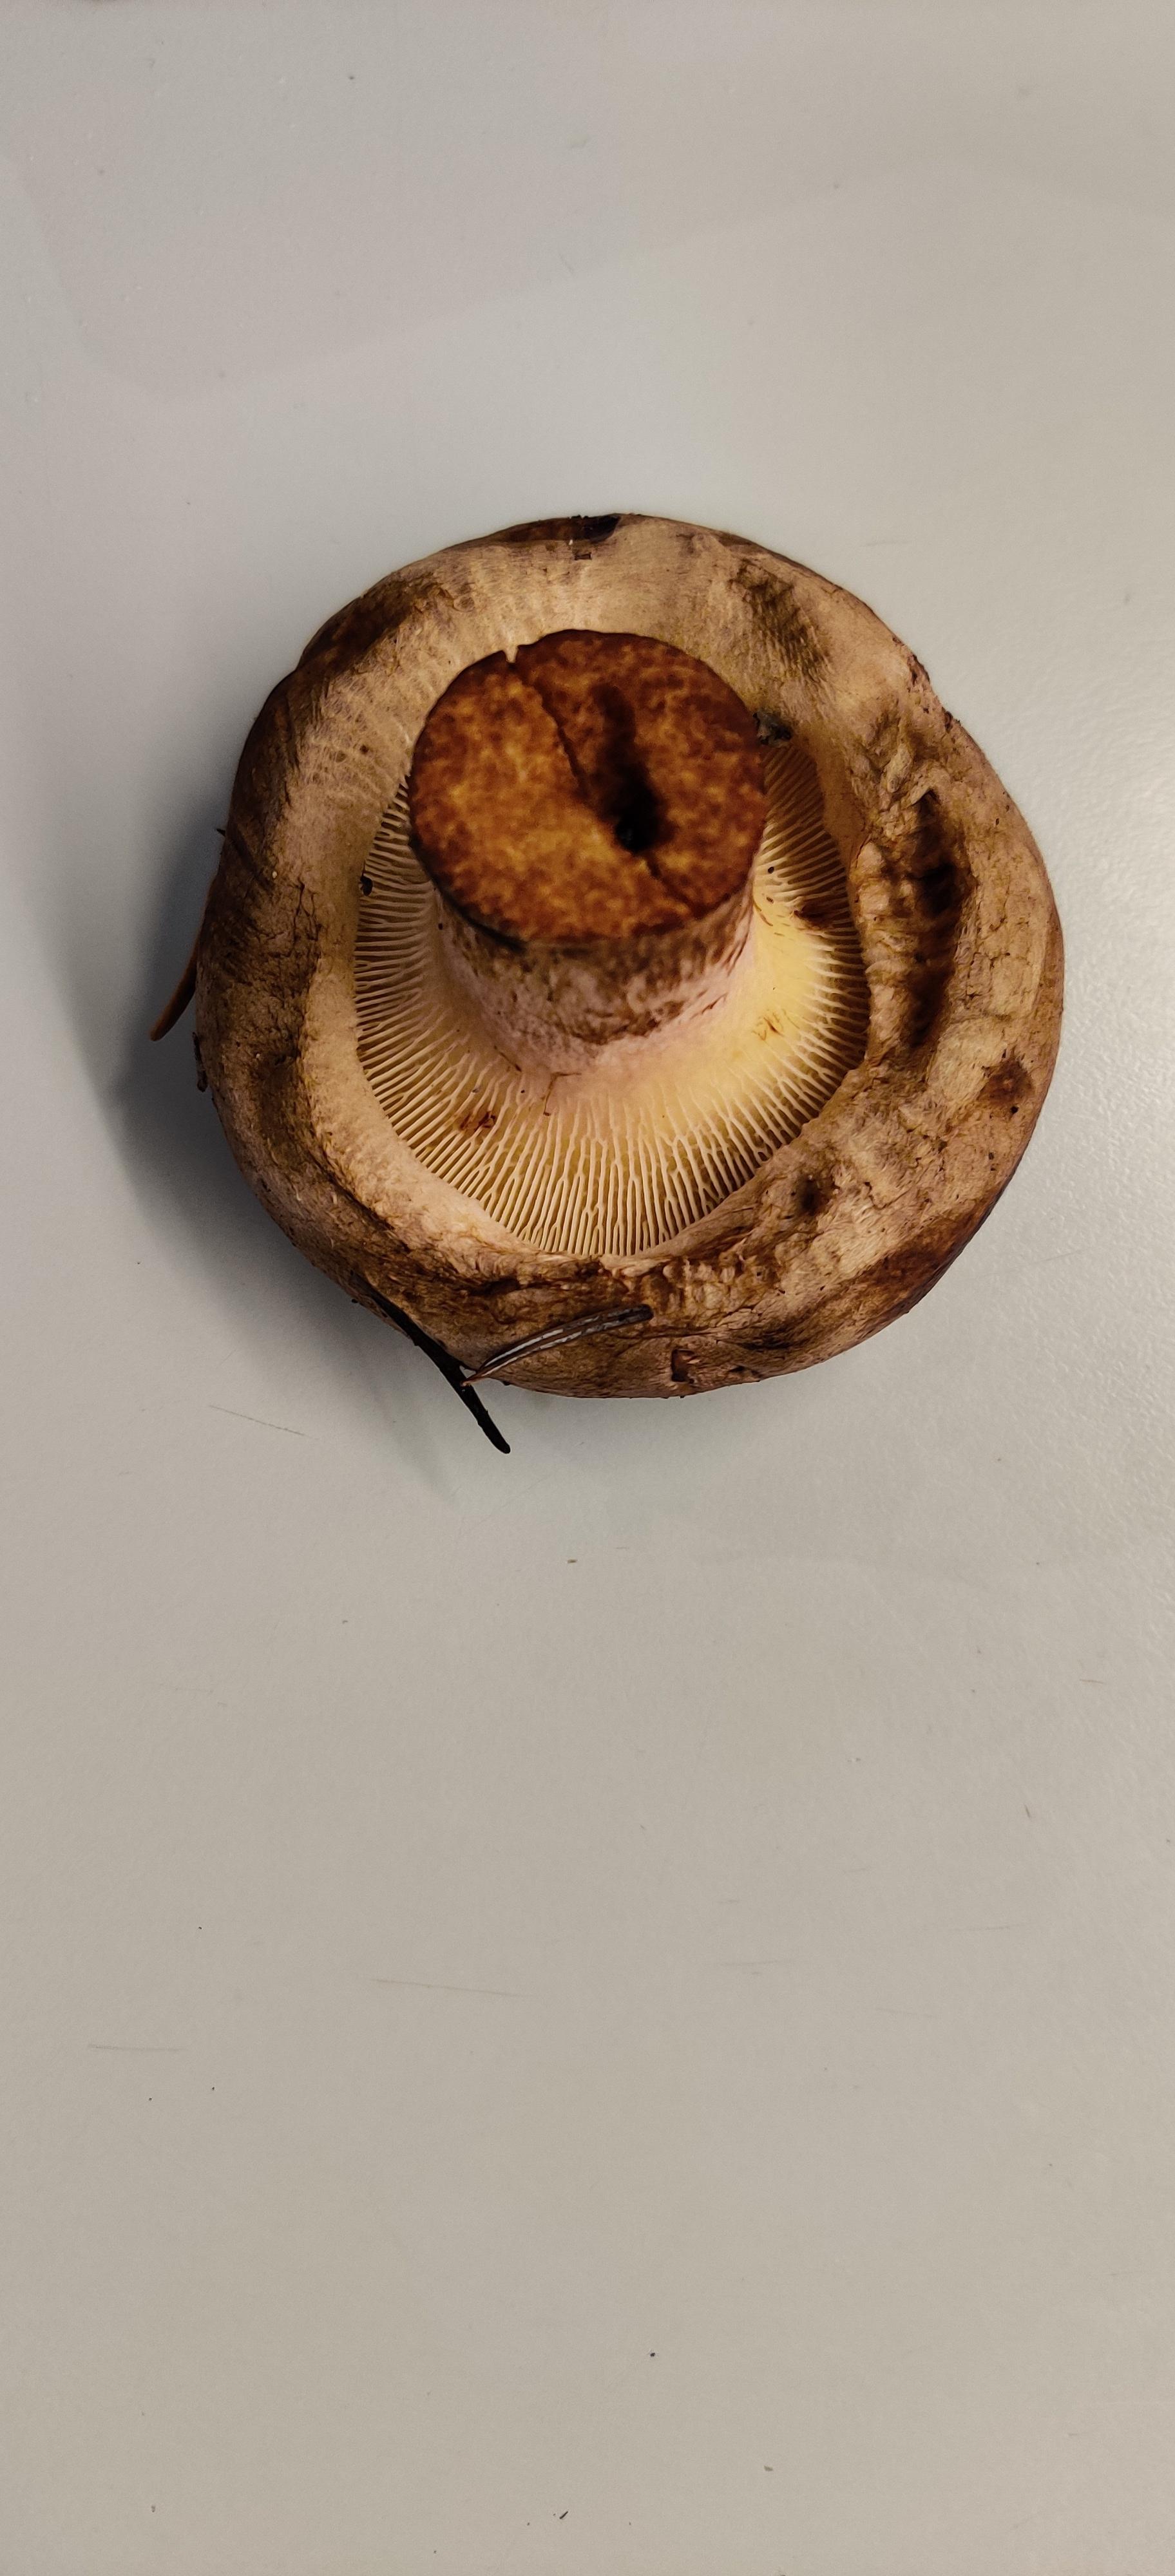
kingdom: Fungi
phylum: Basidiomycota
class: Agaricomycetes
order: Boletales
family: Paxillaceae
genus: Paxillus
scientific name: Paxillus
